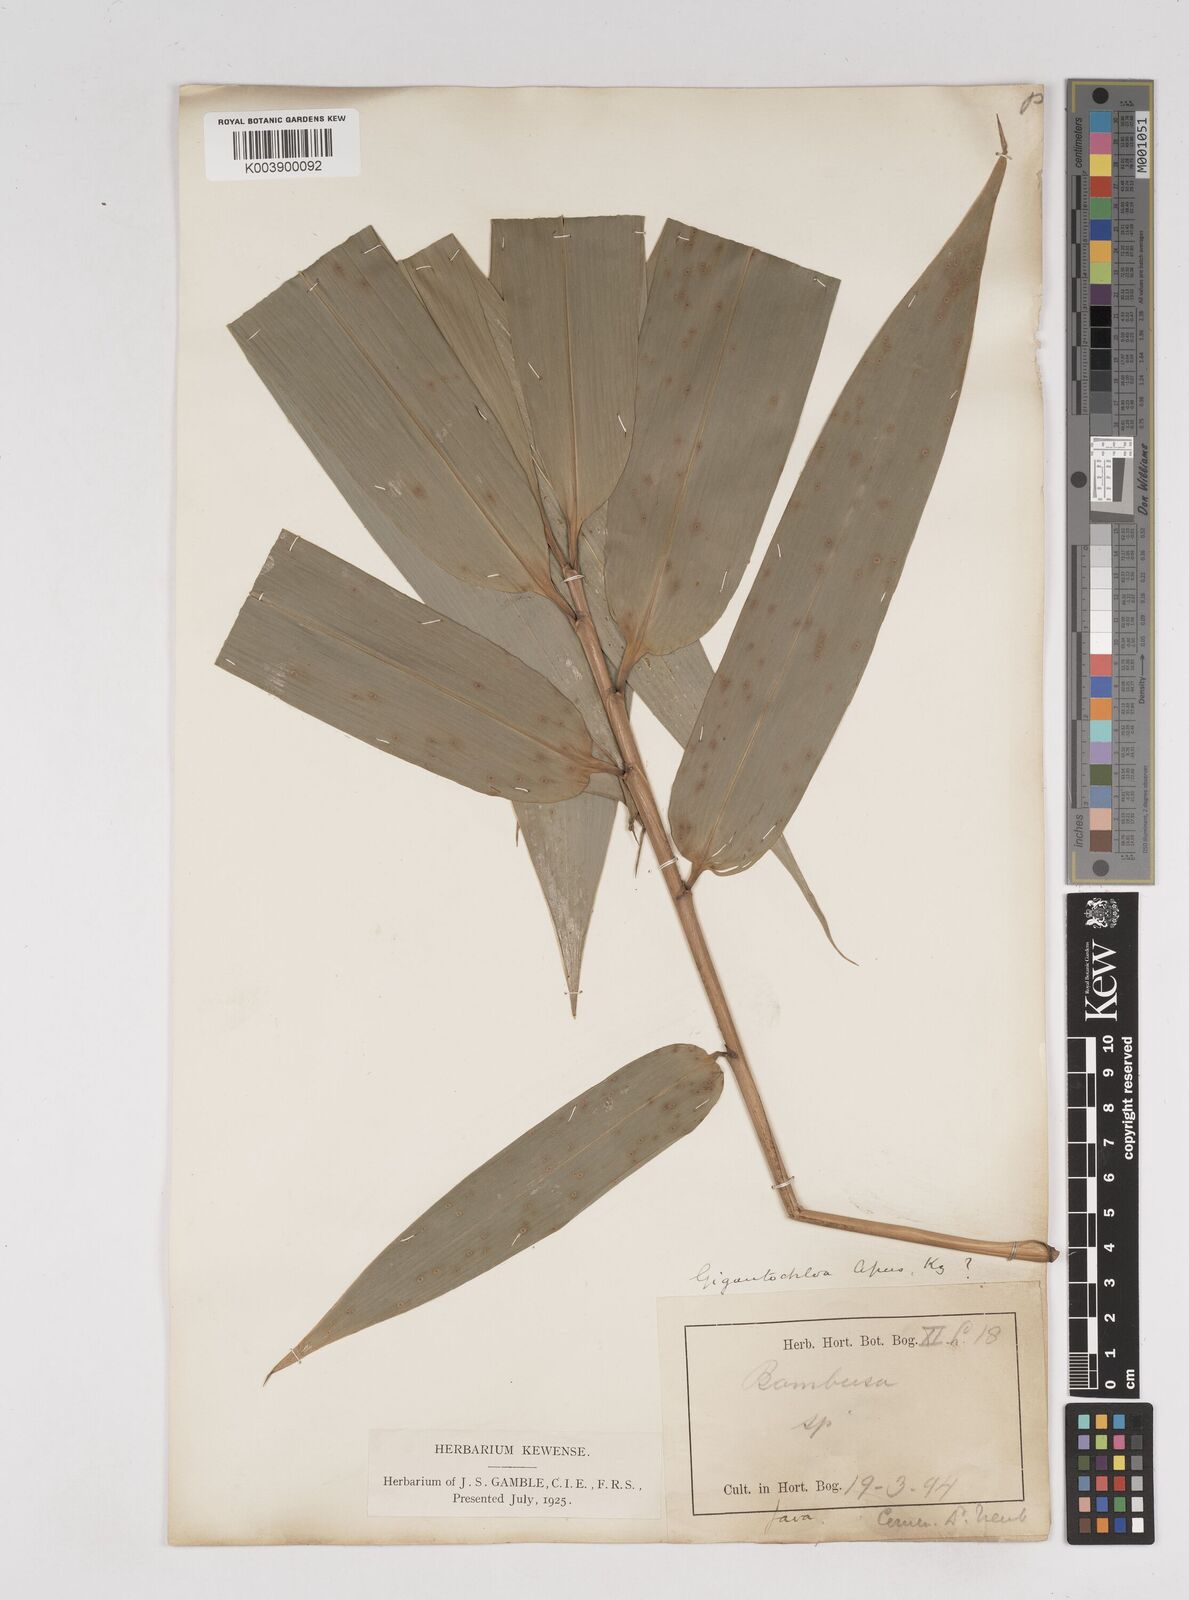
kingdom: Plantae
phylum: Tracheophyta
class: Liliopsida
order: Poales
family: Poaceae
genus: Gigantochloa
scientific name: Gigantochloa apus
